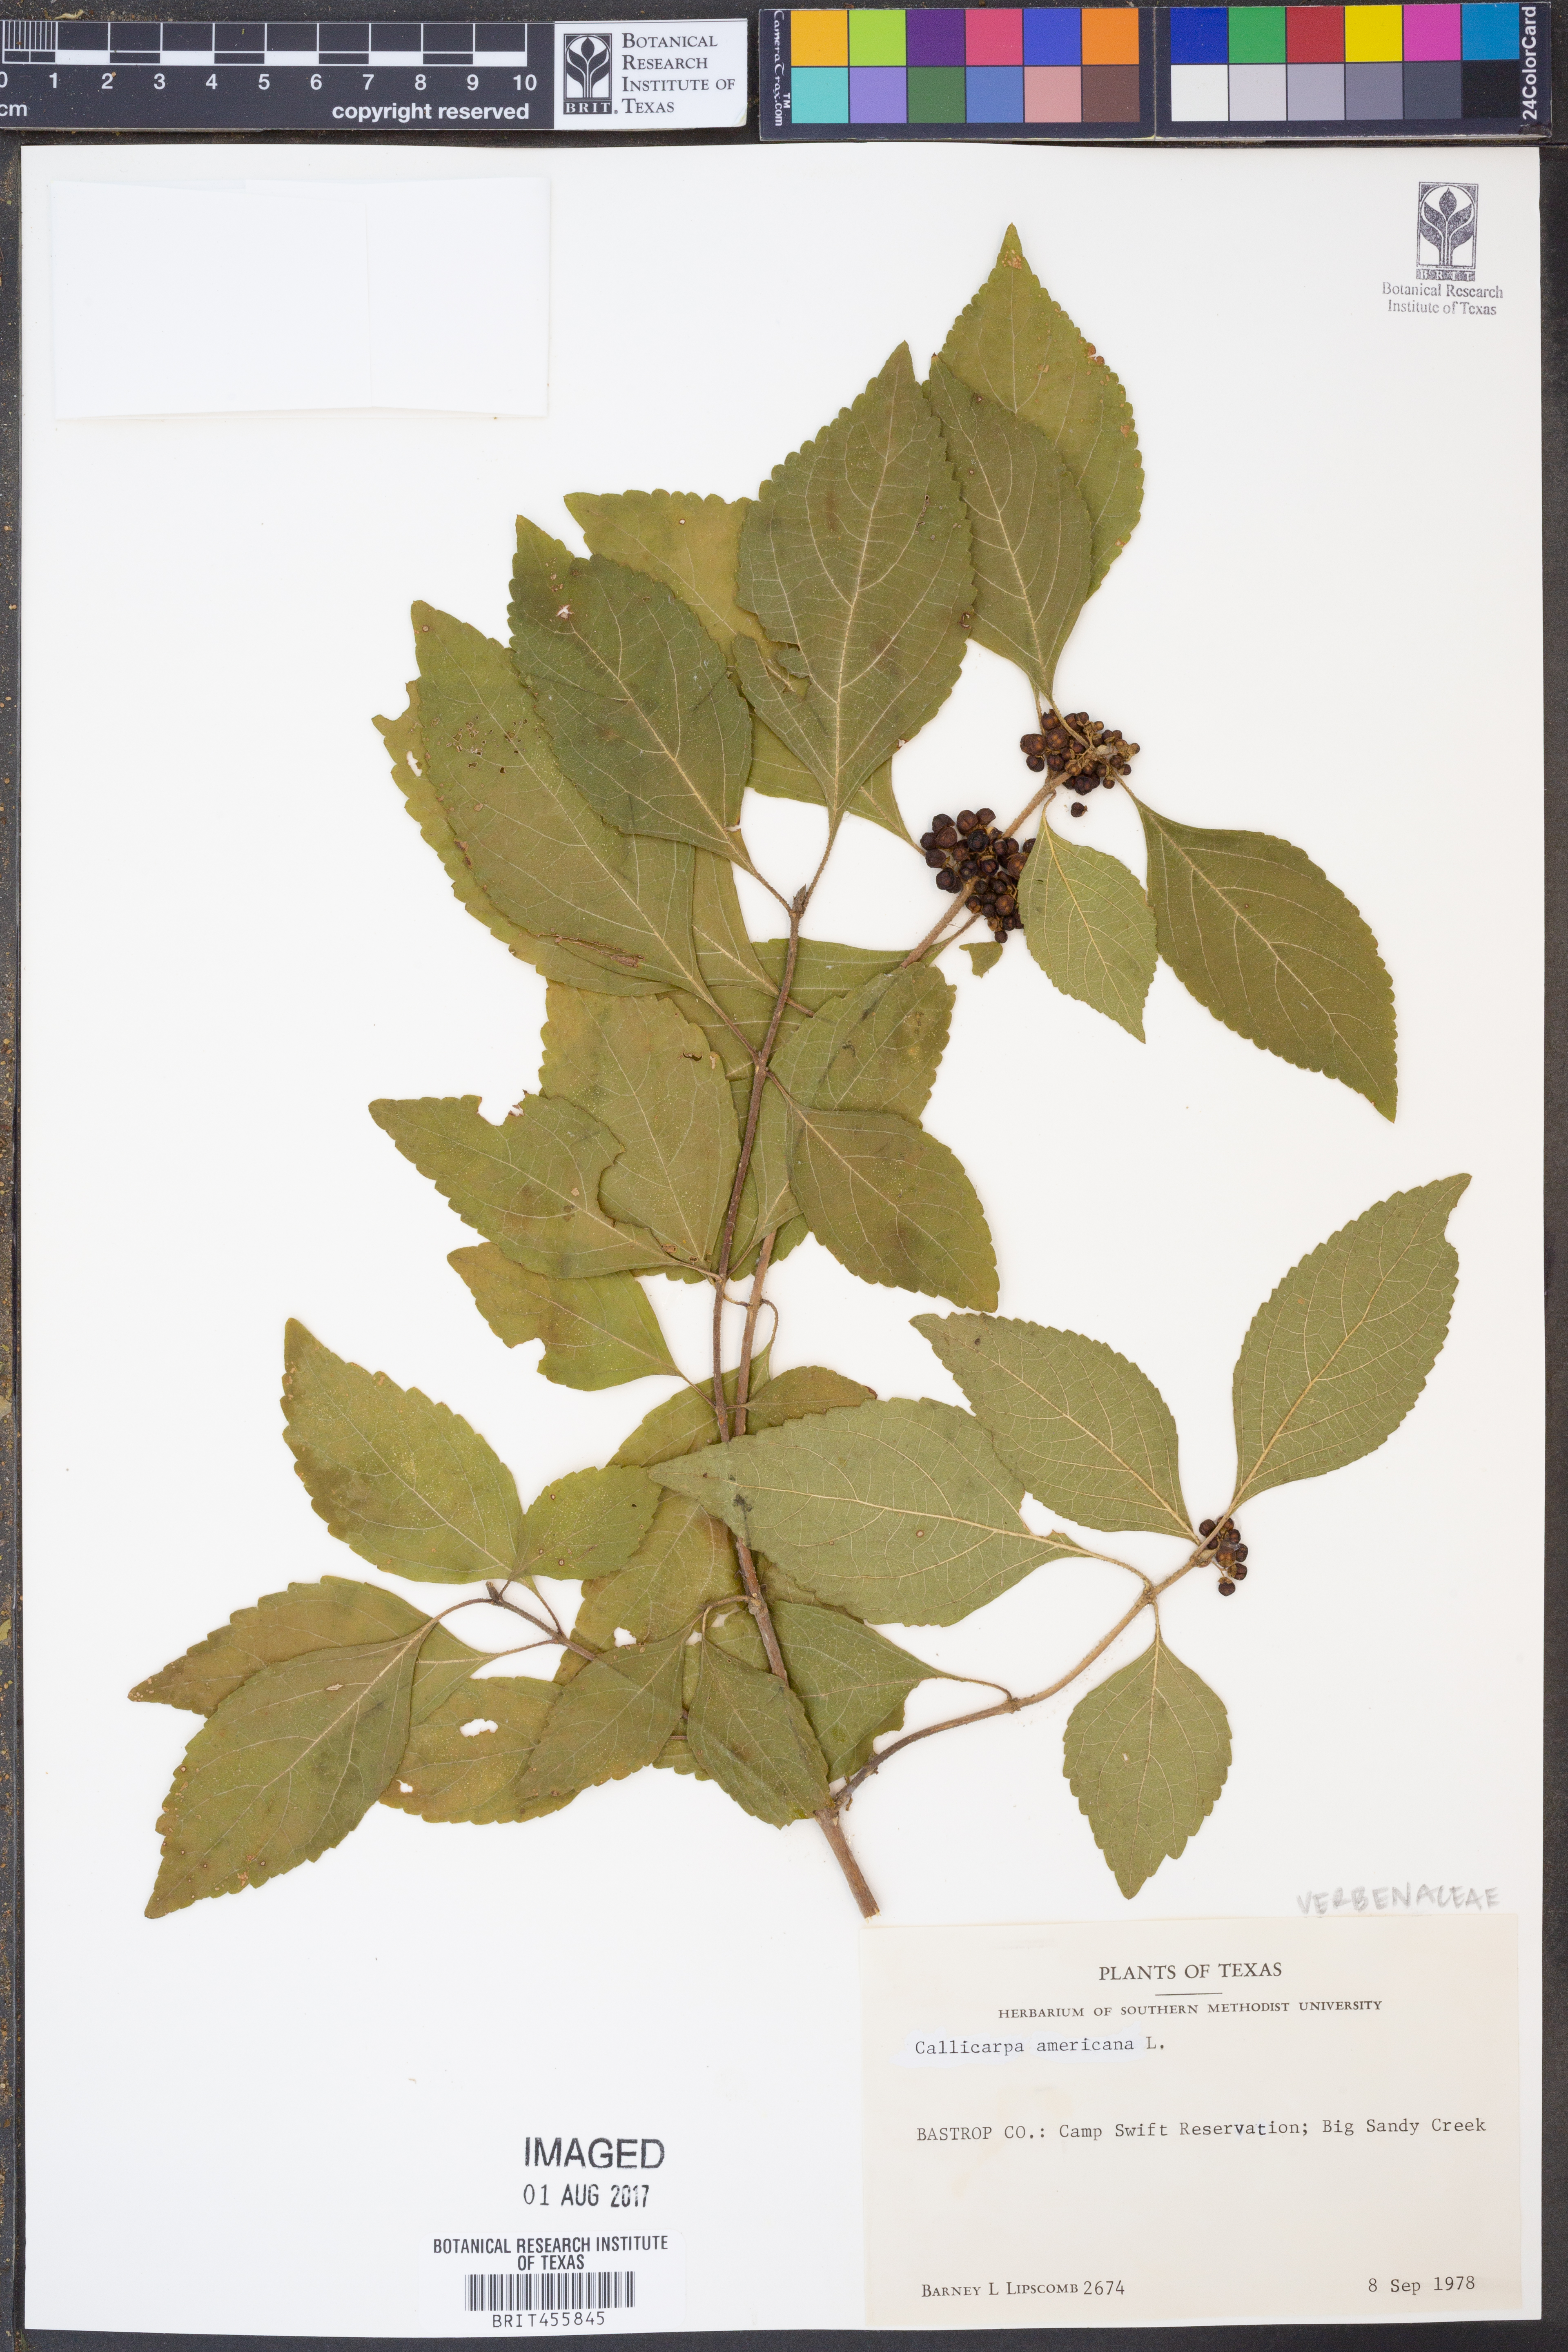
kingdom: Plantae
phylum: Tracheophyta
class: Magnoliopsida
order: Lamiales
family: Lamiaceae
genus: Callicarpa
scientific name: Callicarpa americana
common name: American beautyberry
